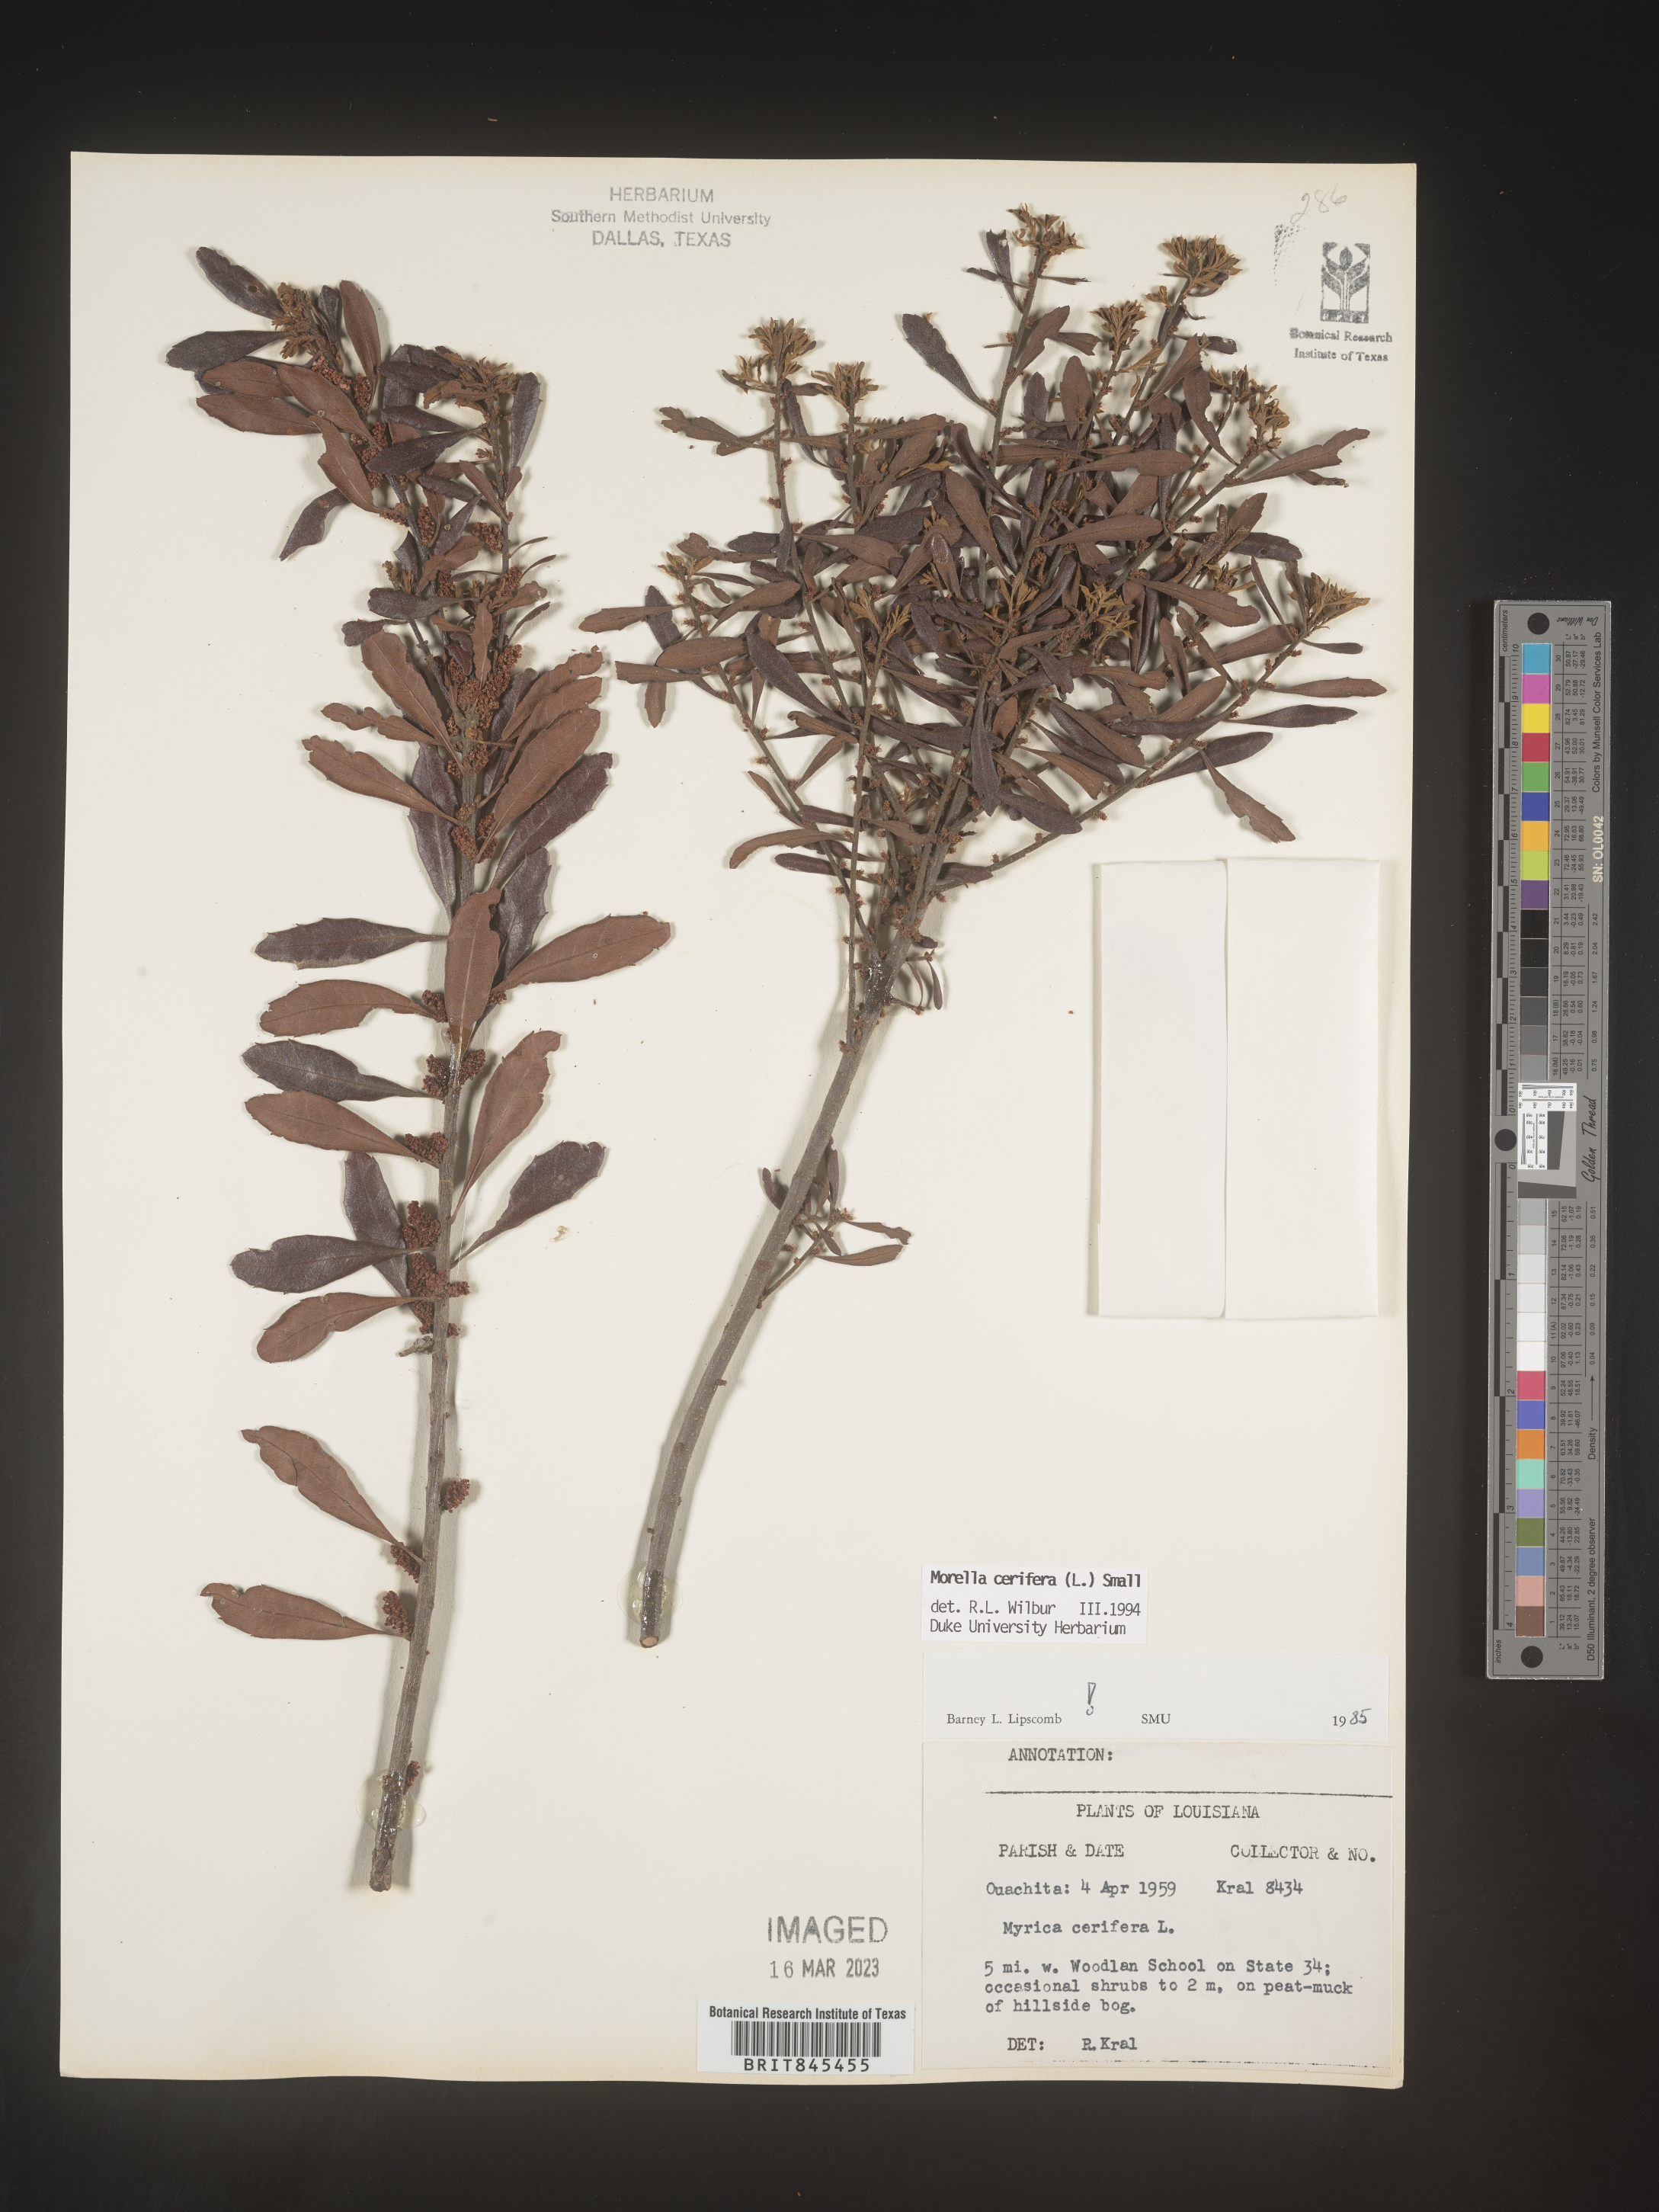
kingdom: Plantae
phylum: Tracheophyta
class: Magnoliopsida
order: Fagales
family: Myricaceae
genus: Morella
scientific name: Morella cerifera
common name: Wax myrtle
